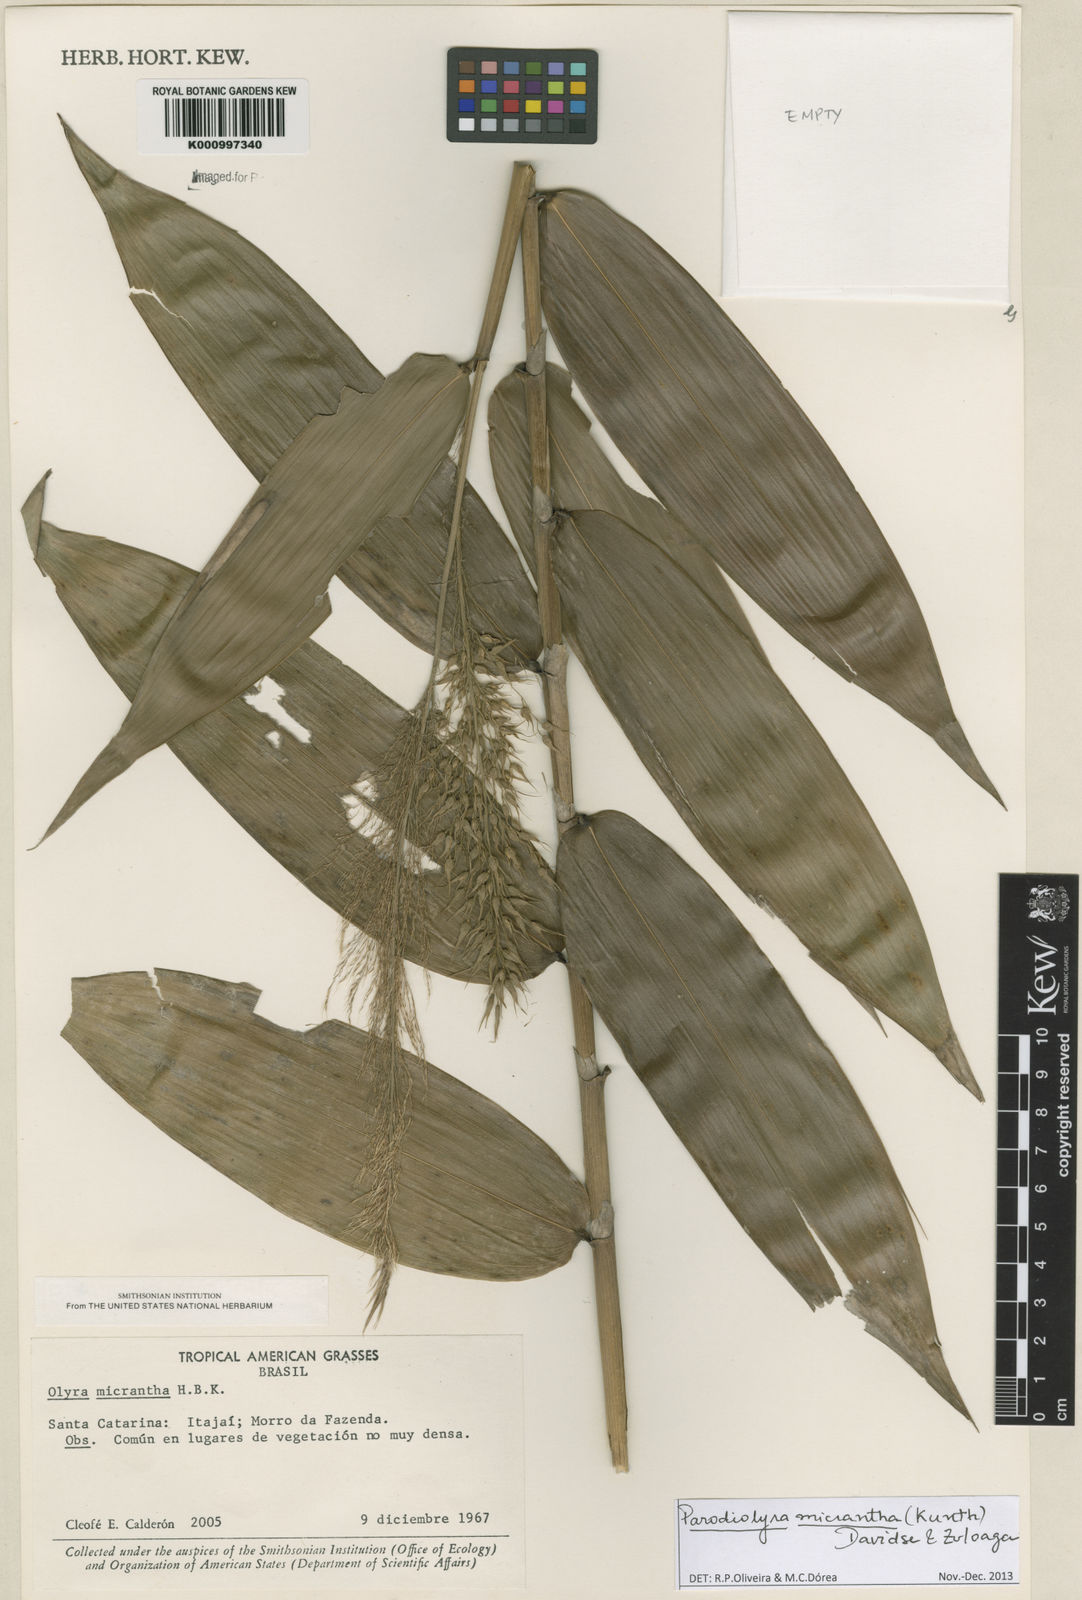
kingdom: Plantae
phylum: Tracheophyta
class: Liliopsida
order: Poales
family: Poaceae
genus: Taquara
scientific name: Taquara micrantha
